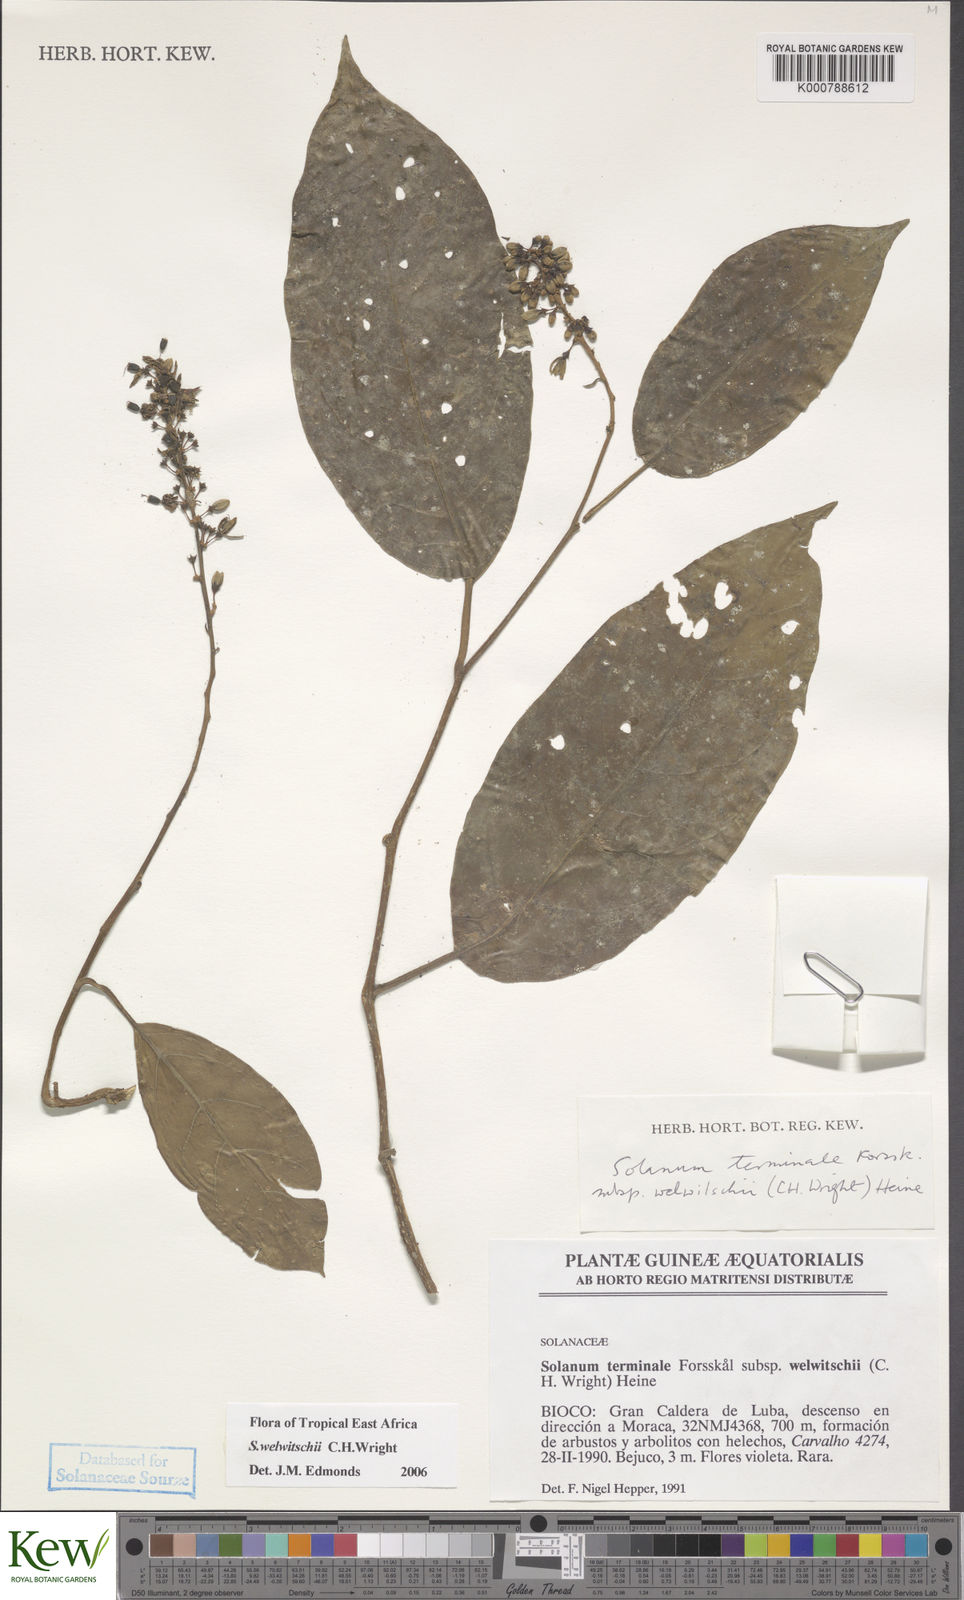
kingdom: Plantae
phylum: Tracheophyta
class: Magnoliopsida
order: Solanales
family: Solanaceae
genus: Solanum
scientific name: Solanum terminale
